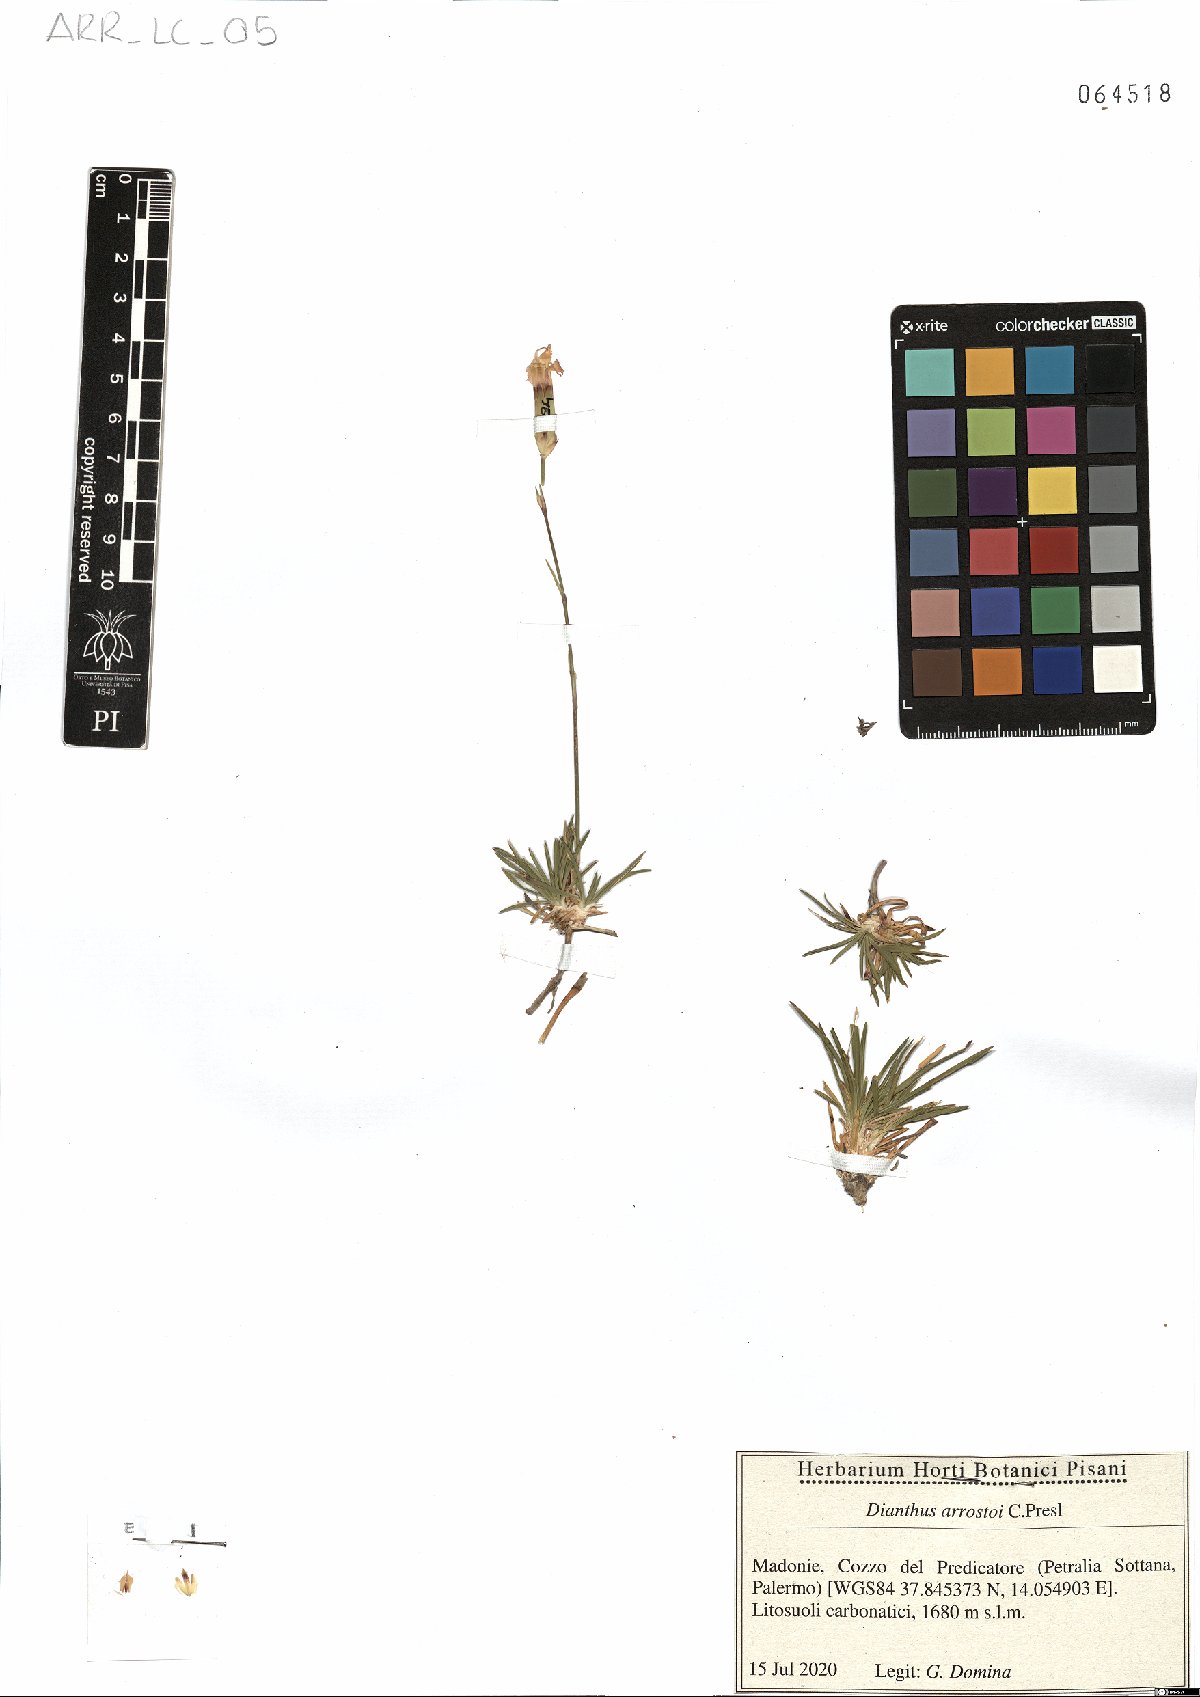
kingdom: Plantae
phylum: Tracheophyta
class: Magnoliopsida
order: Caryophyllales
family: Caryophyllaceae
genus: Dianthus
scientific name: Dianthus arrostoi
